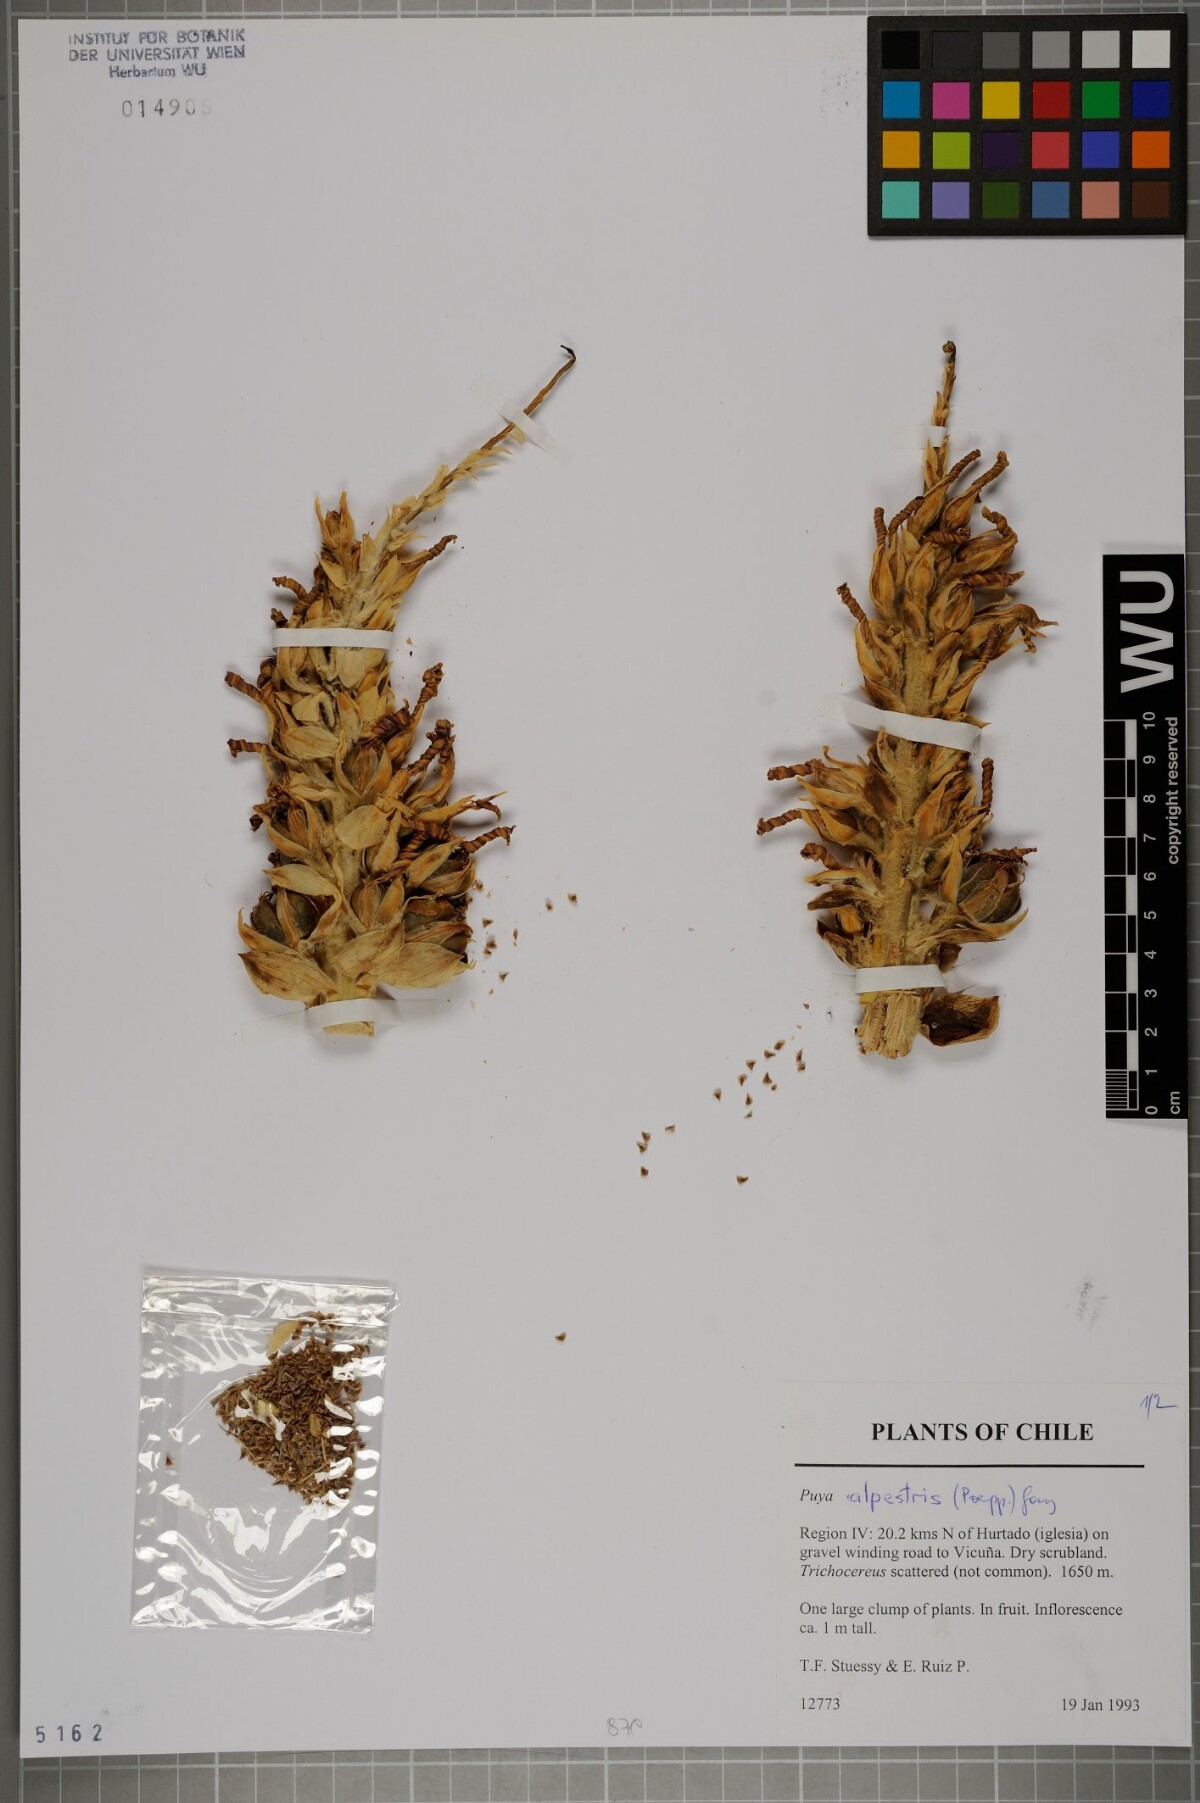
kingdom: Plantae
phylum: Tracheophyta
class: Liliopsida
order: Poales
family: Bromeliaceae
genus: Puya
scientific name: Puya alpestris
